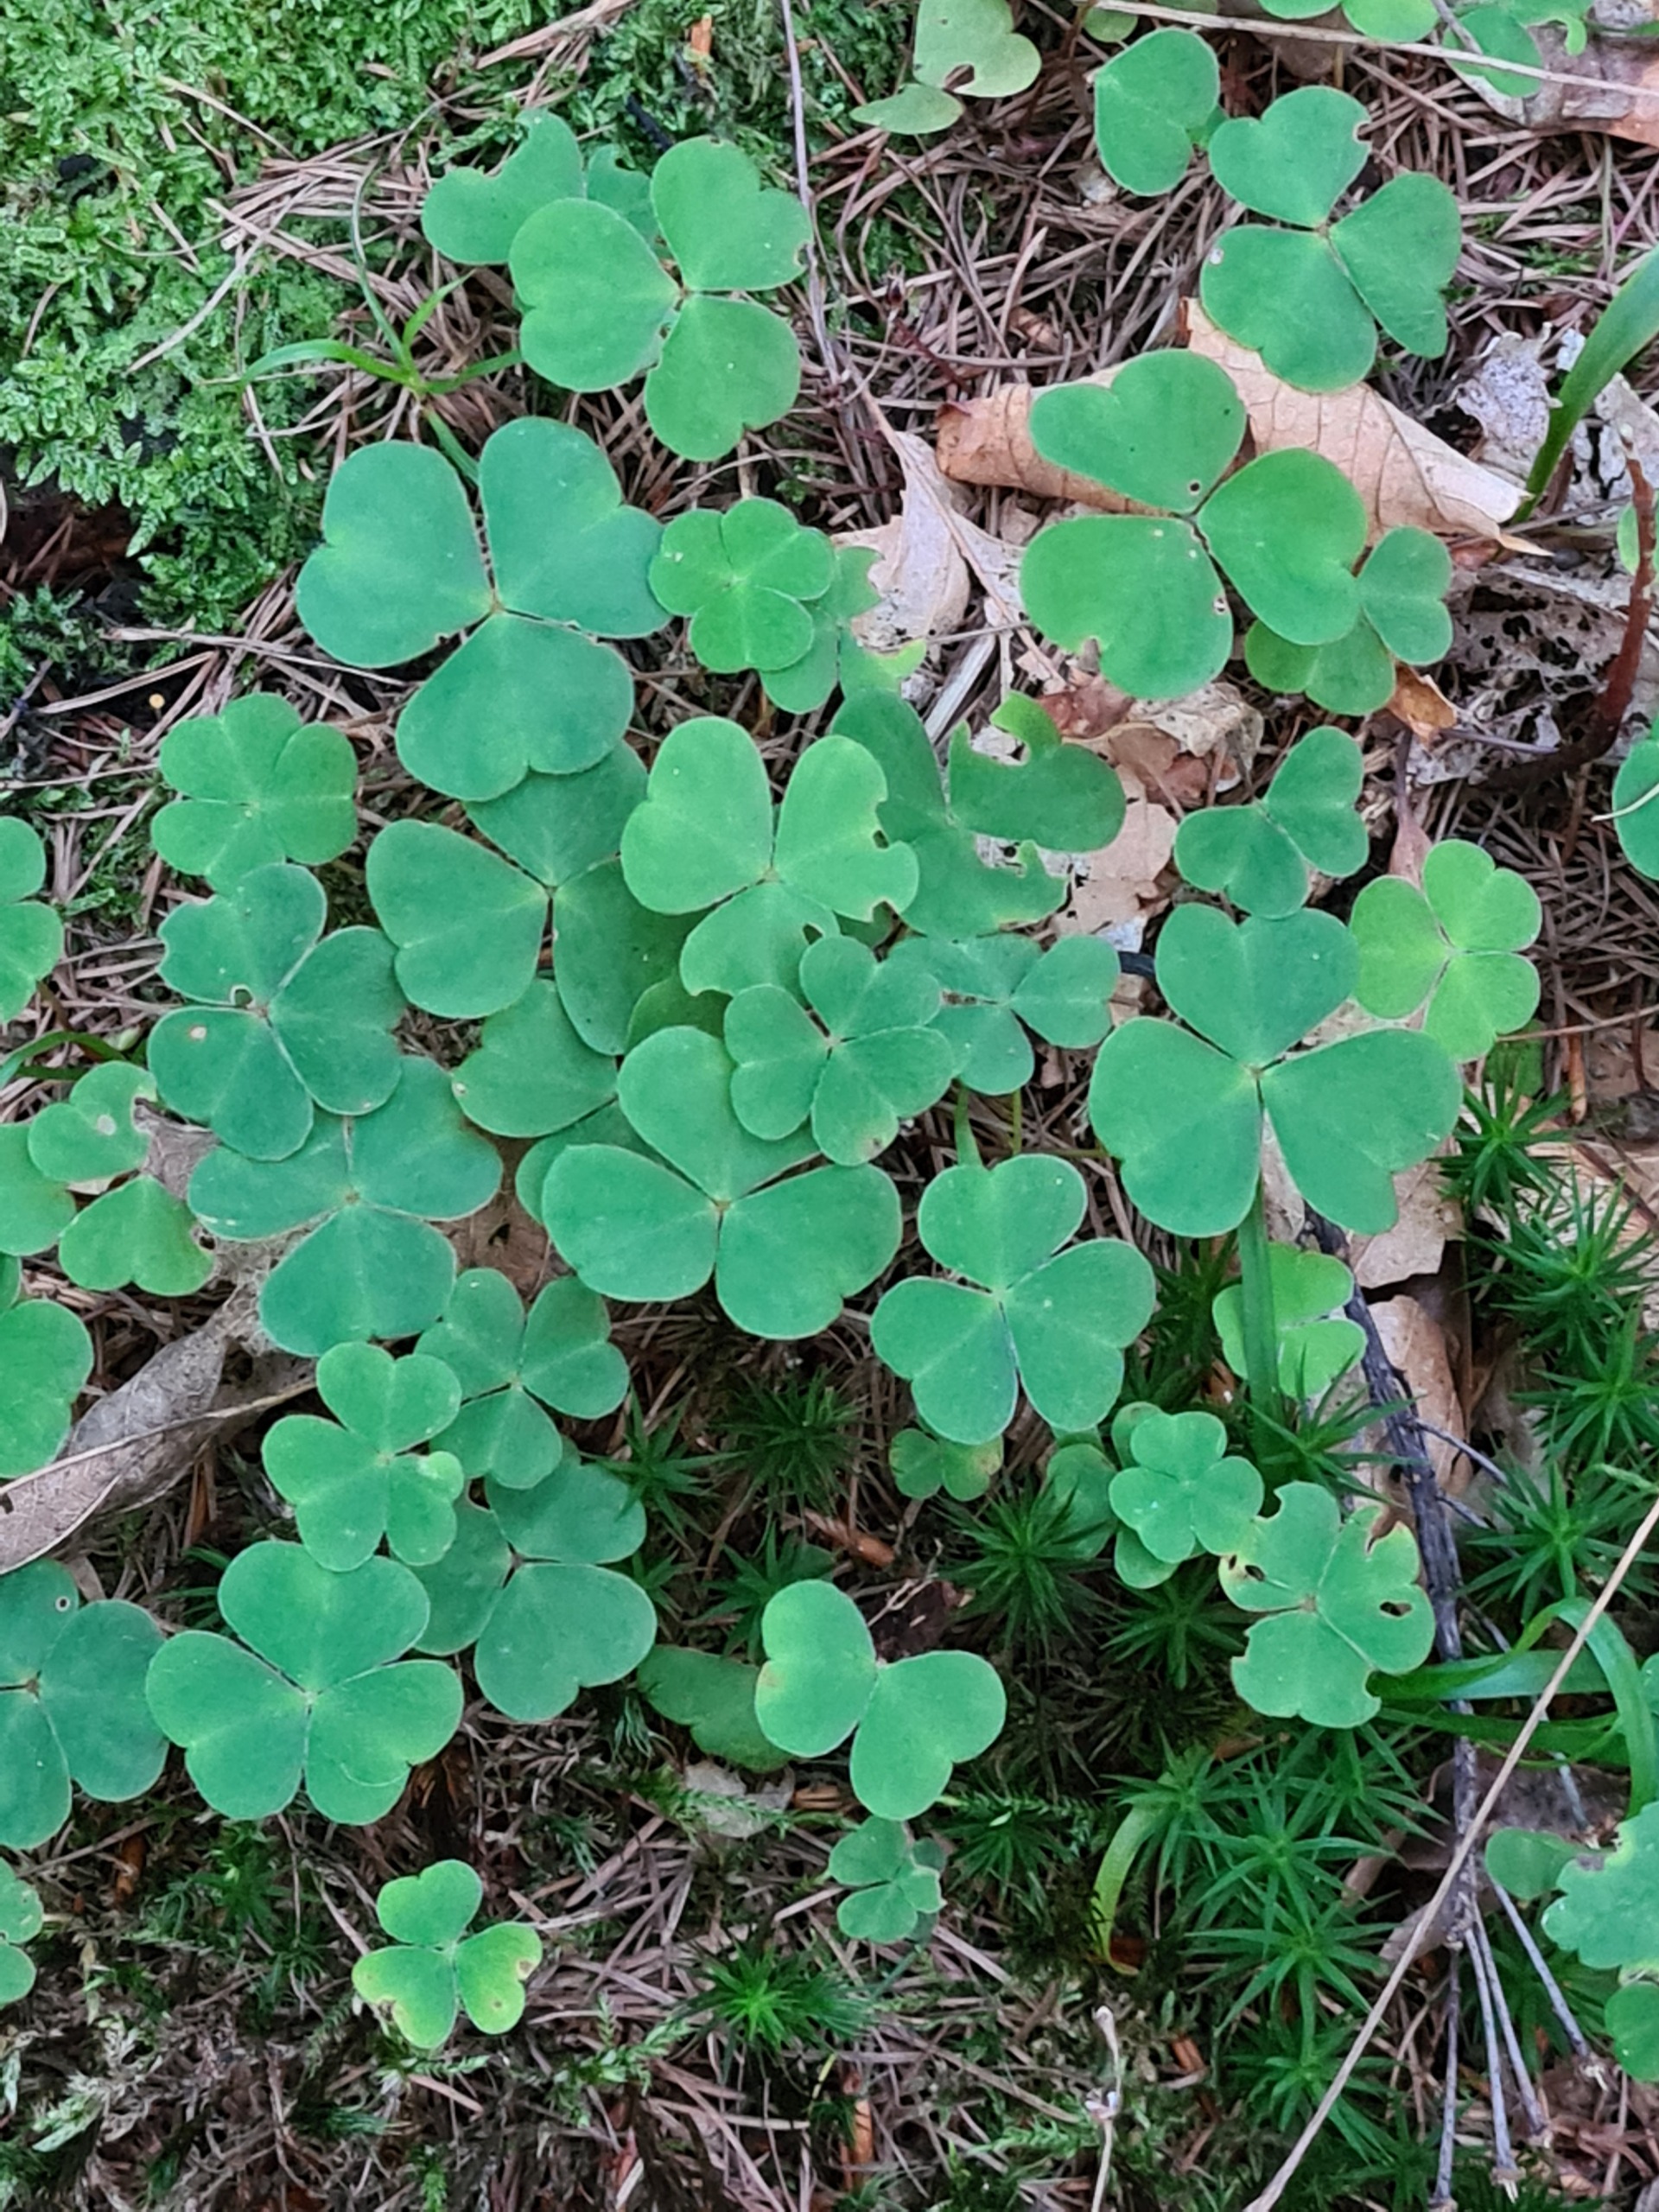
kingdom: Plantae
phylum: Tracheophyta
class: Magnoliopsida
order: Oxalidales
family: Oxalidaceae
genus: Oxalis
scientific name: Oxalis acetosella
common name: Skovsyre
